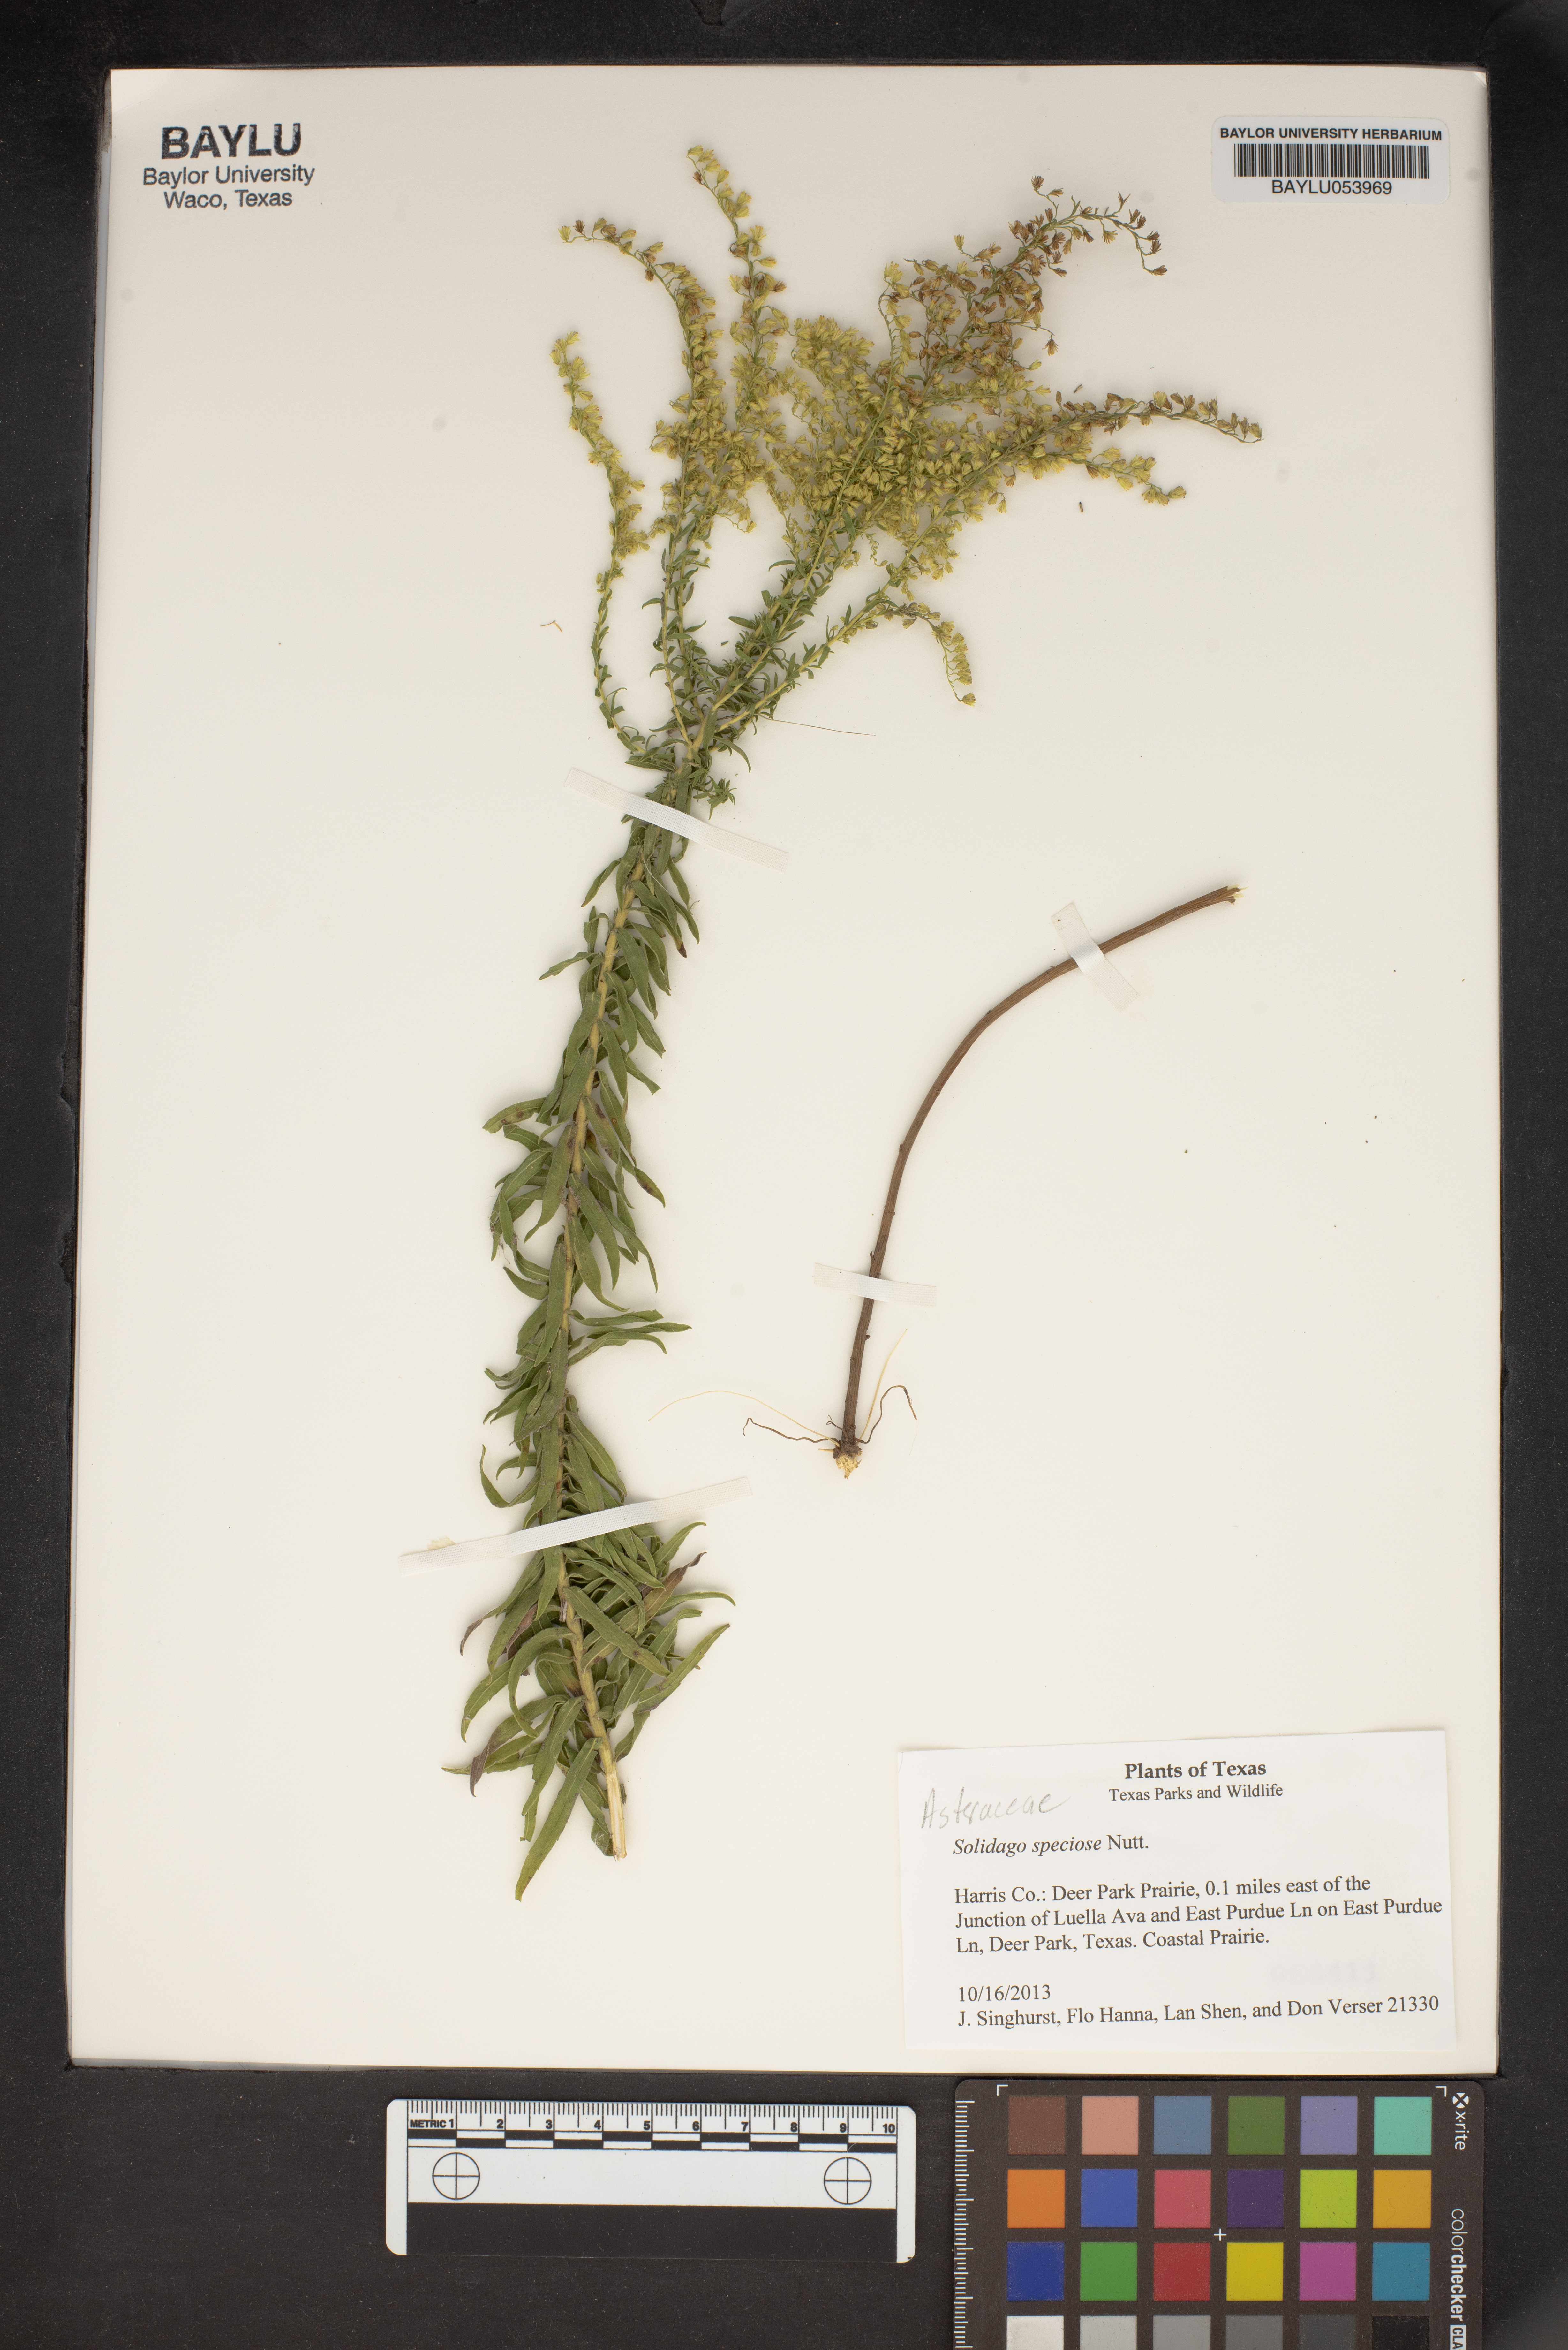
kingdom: Plantae
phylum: Tracheophyta
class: Magnoliopsida
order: Asterales
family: Asteraceae
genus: Solidago
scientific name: Solidago speciosa
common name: Showy goldenrod
